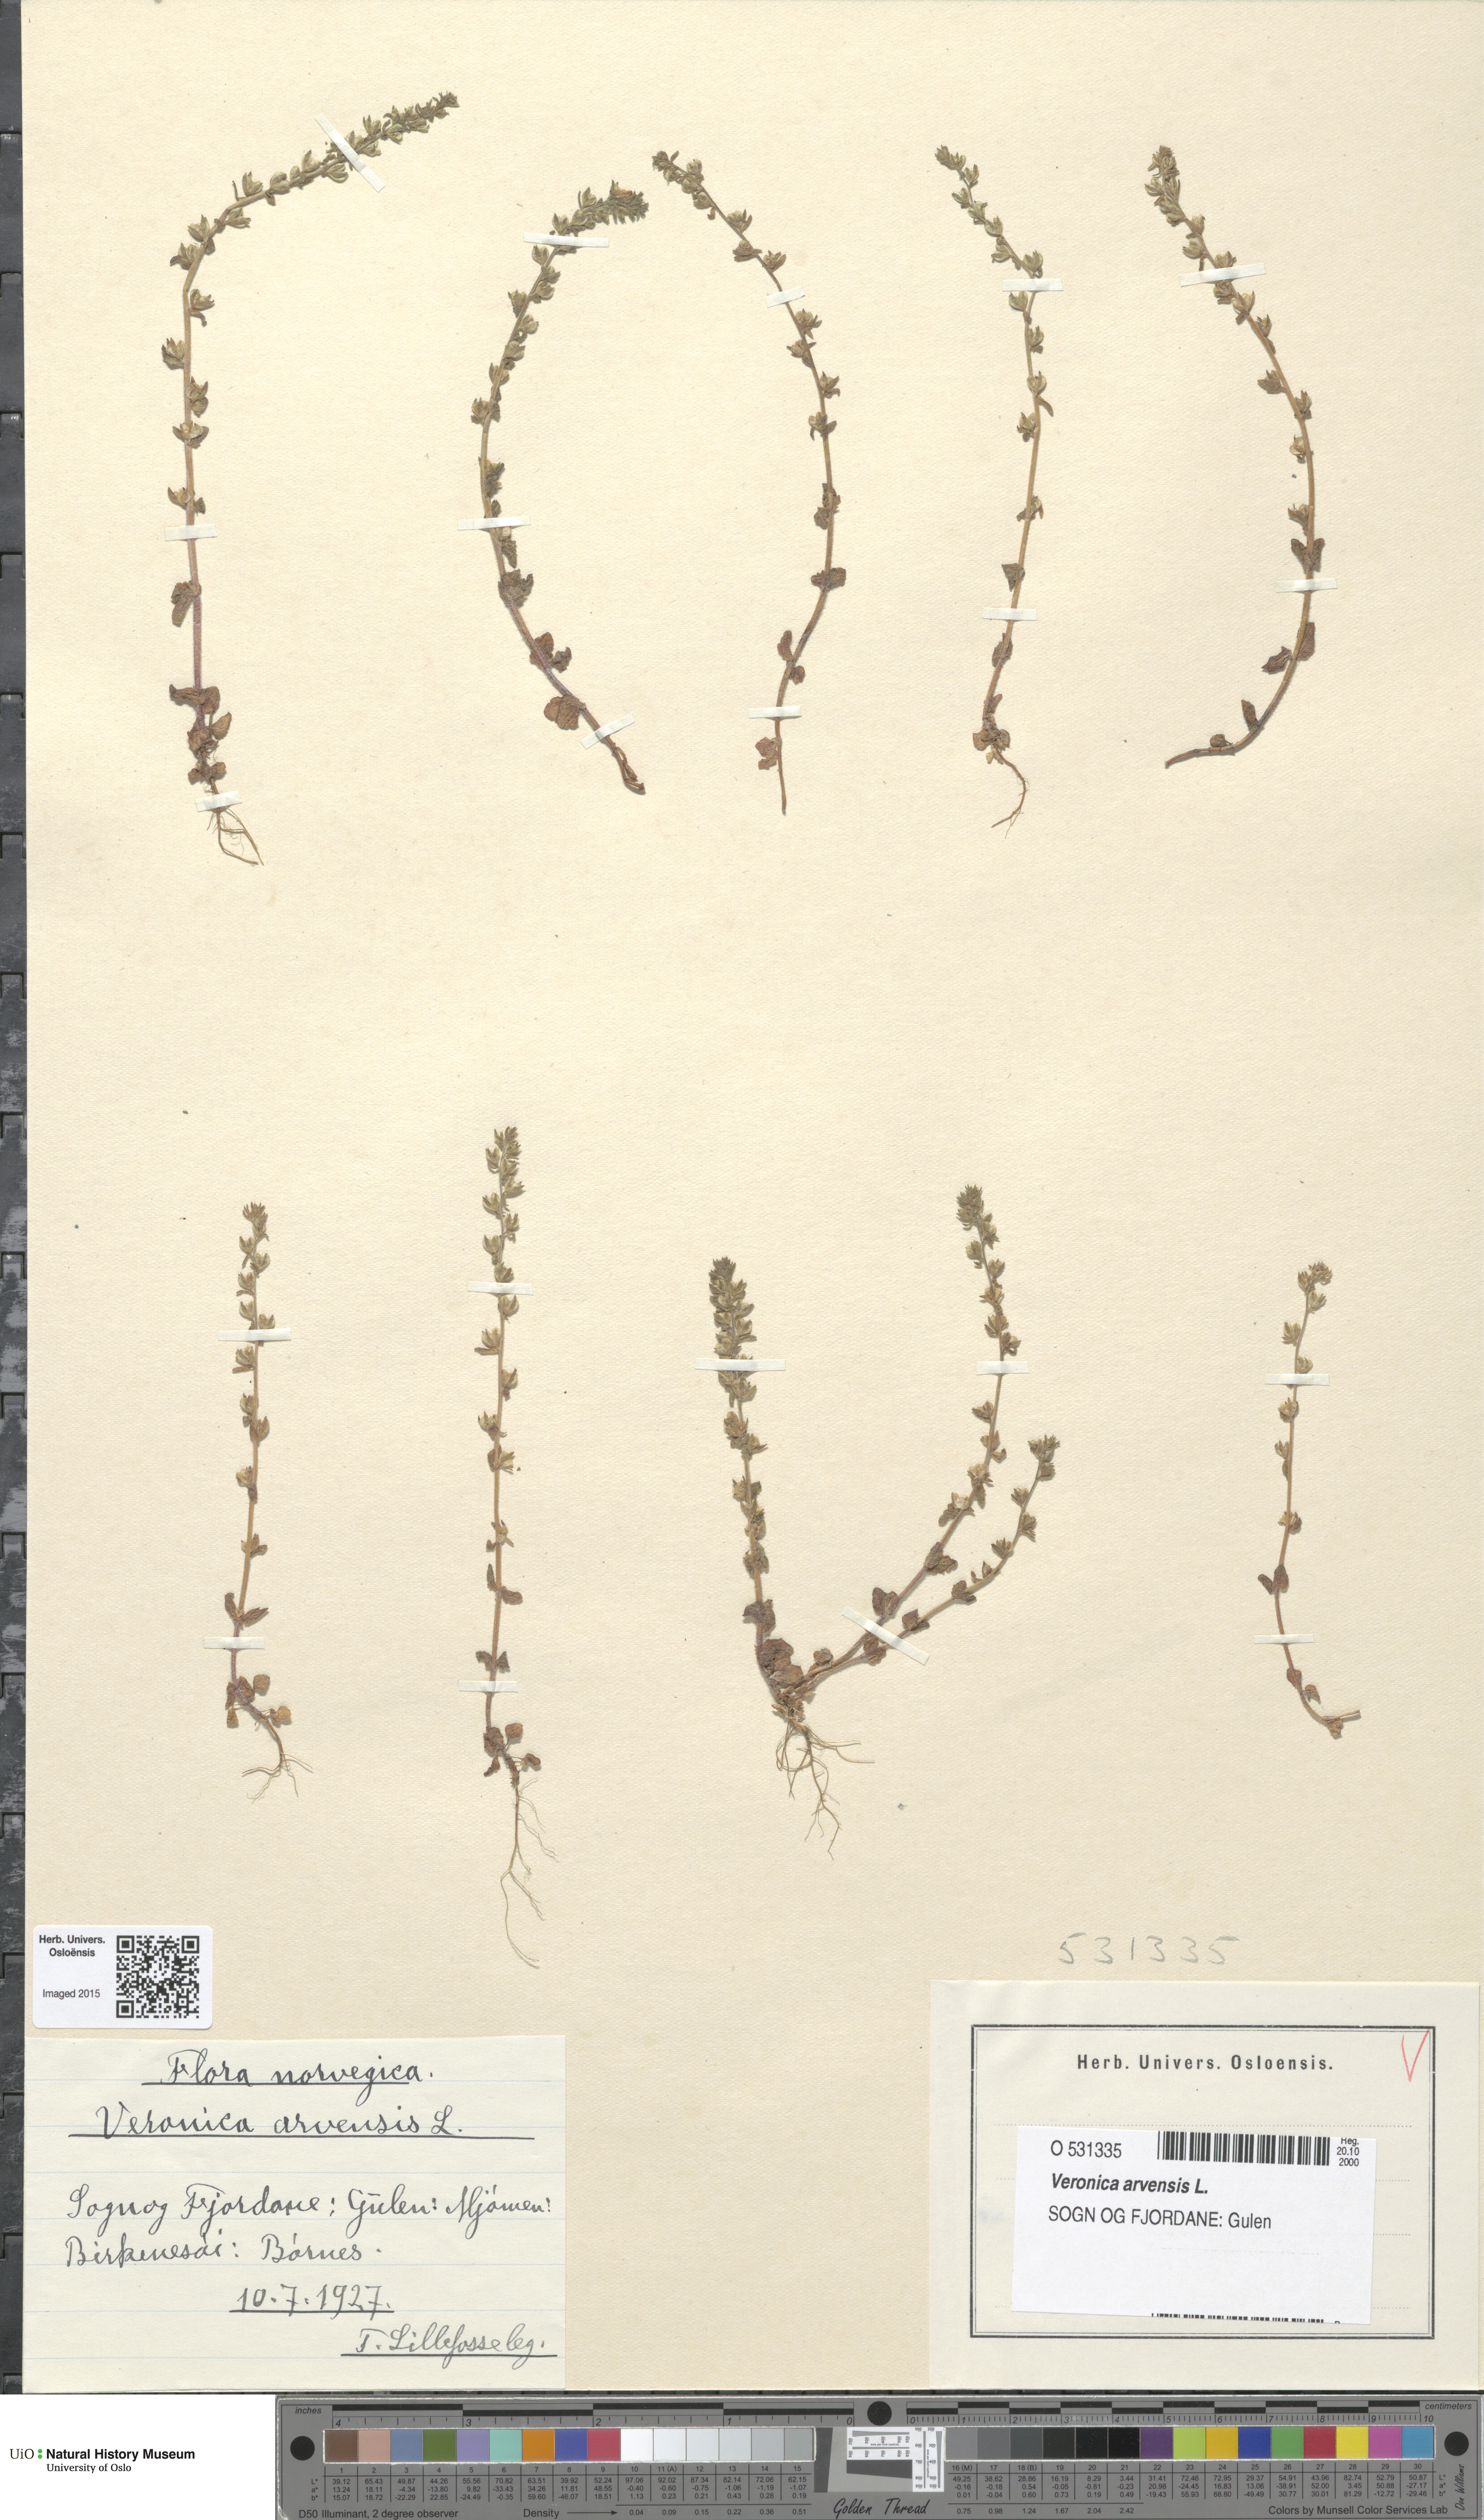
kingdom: Plantae
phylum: Tracheophyta
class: Magnoliopsida
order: Lamiales
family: Plantaginaceae
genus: Veronica
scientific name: Veronica arvensis
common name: Corn speedwell
